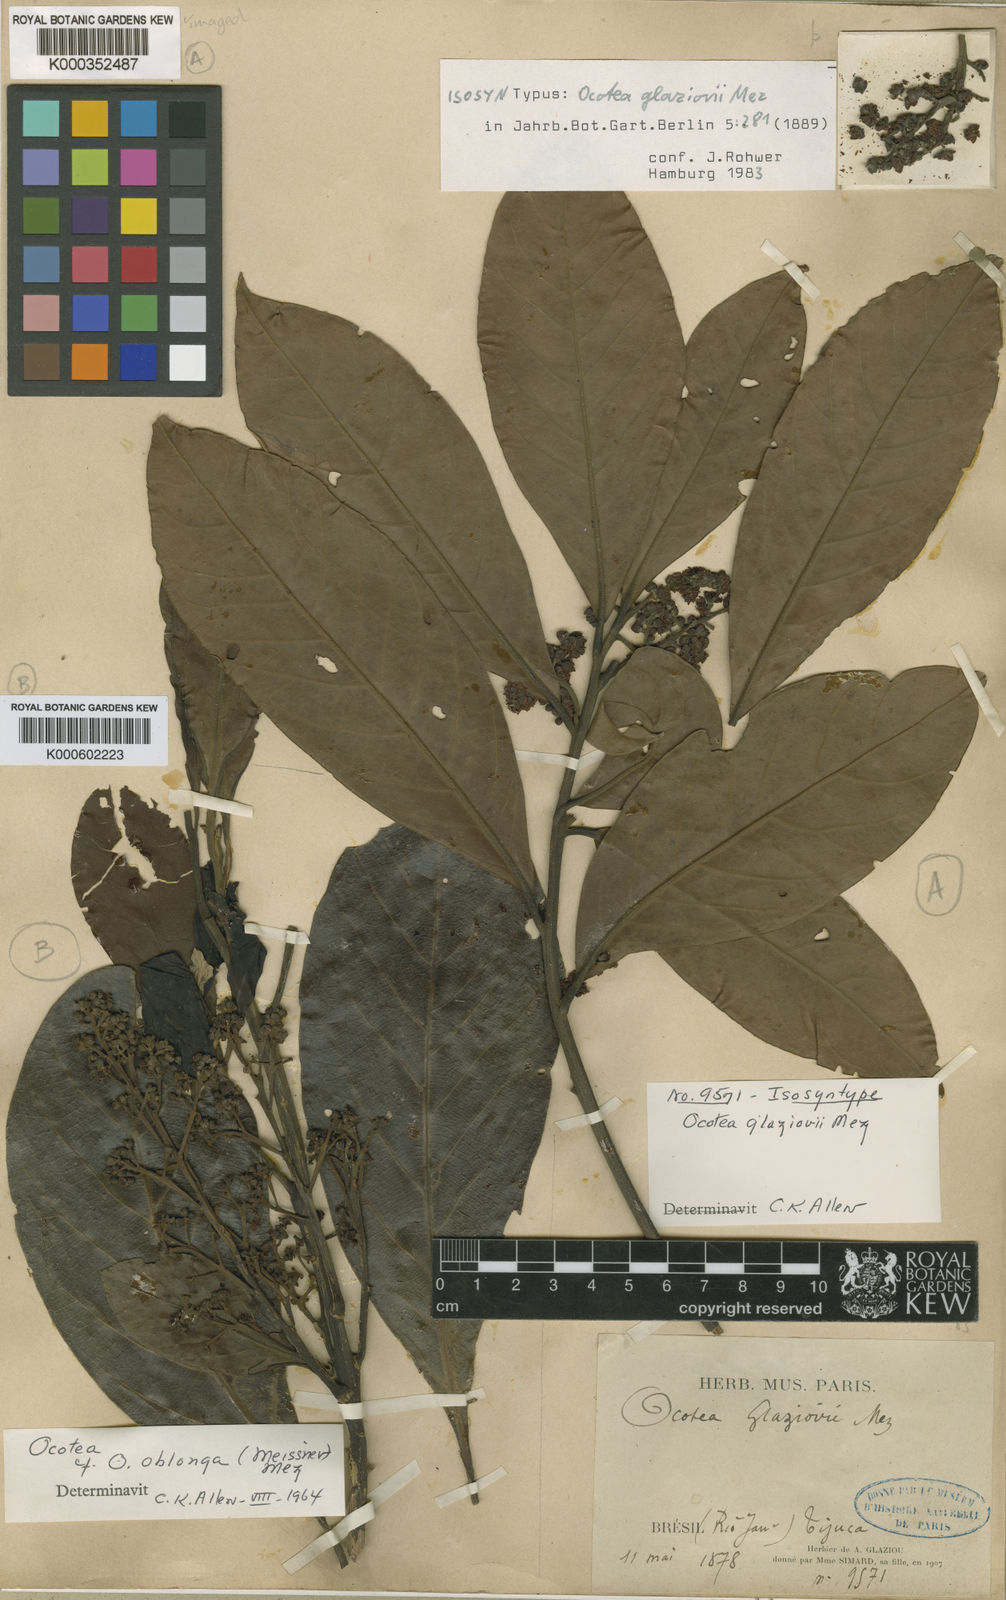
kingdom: Plantae
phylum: Tracheophyta
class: Magnoliopsida
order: Laurales
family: Lauraceae
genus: Ocotea
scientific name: Ocotea glaziovii
